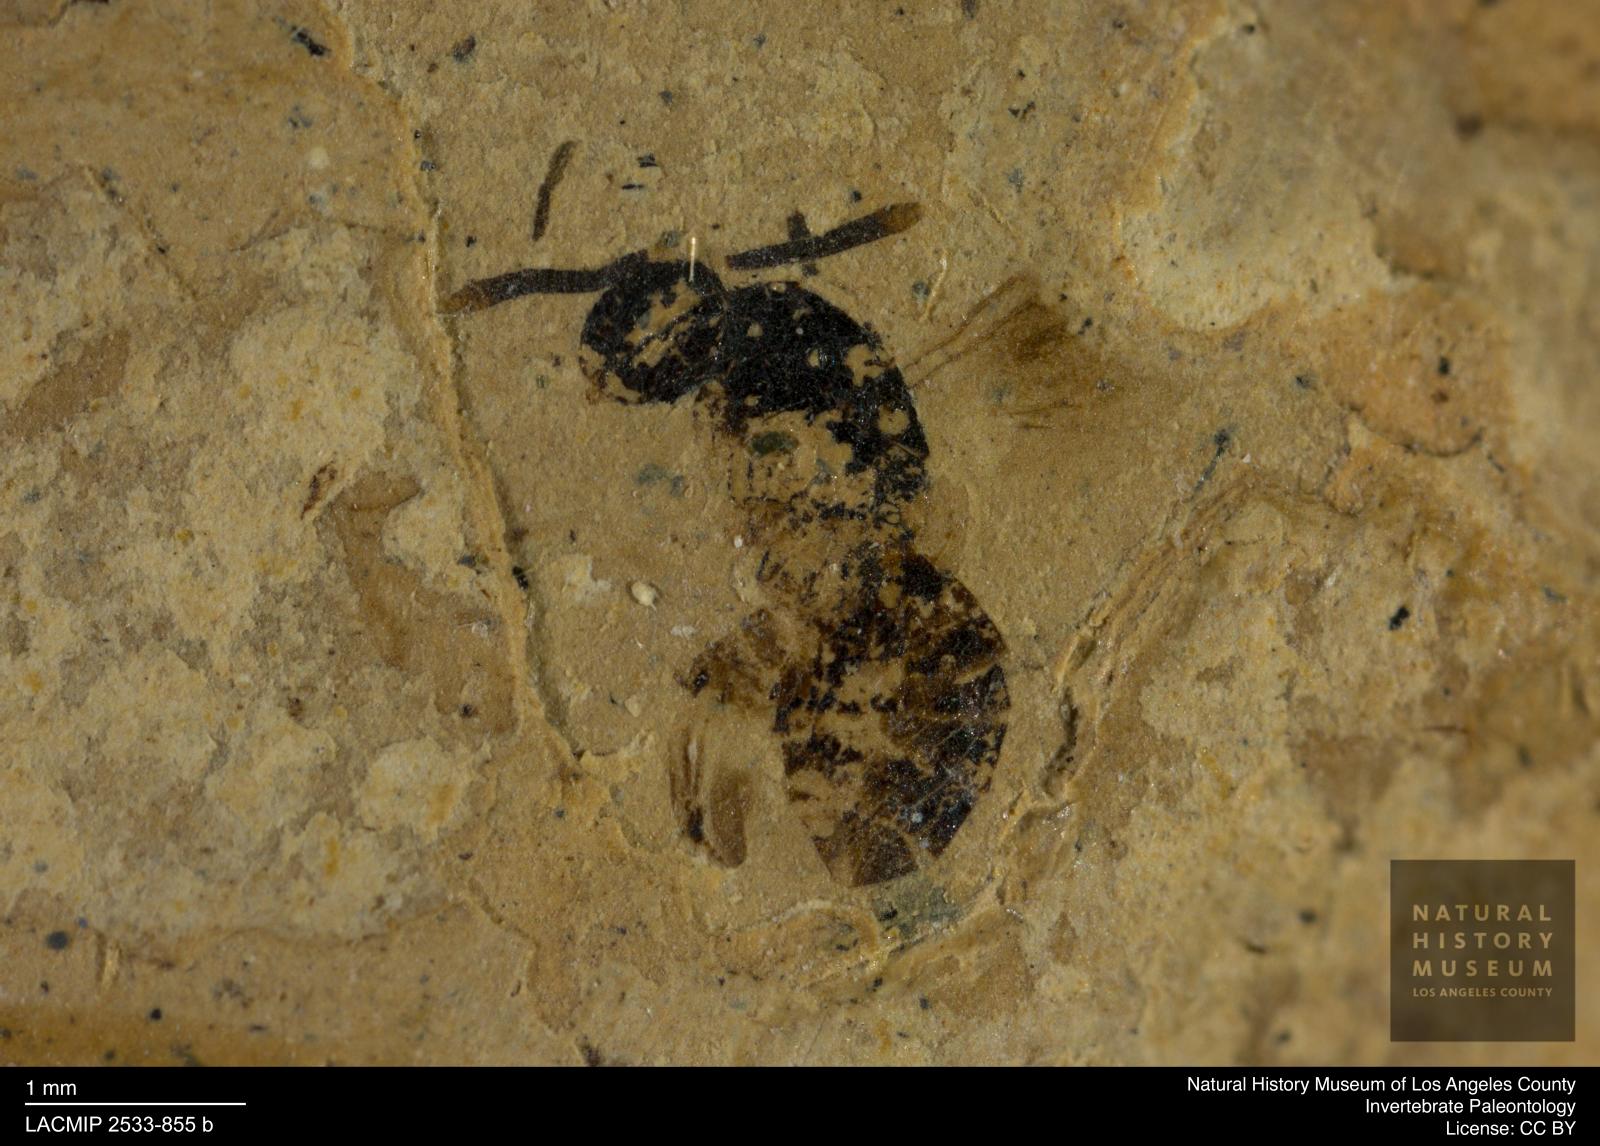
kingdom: Animalia
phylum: Arthropoda
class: Insecta
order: Hymenoptera
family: Pteromalidae
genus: Pteromalus
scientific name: Pteromalus rottensis
